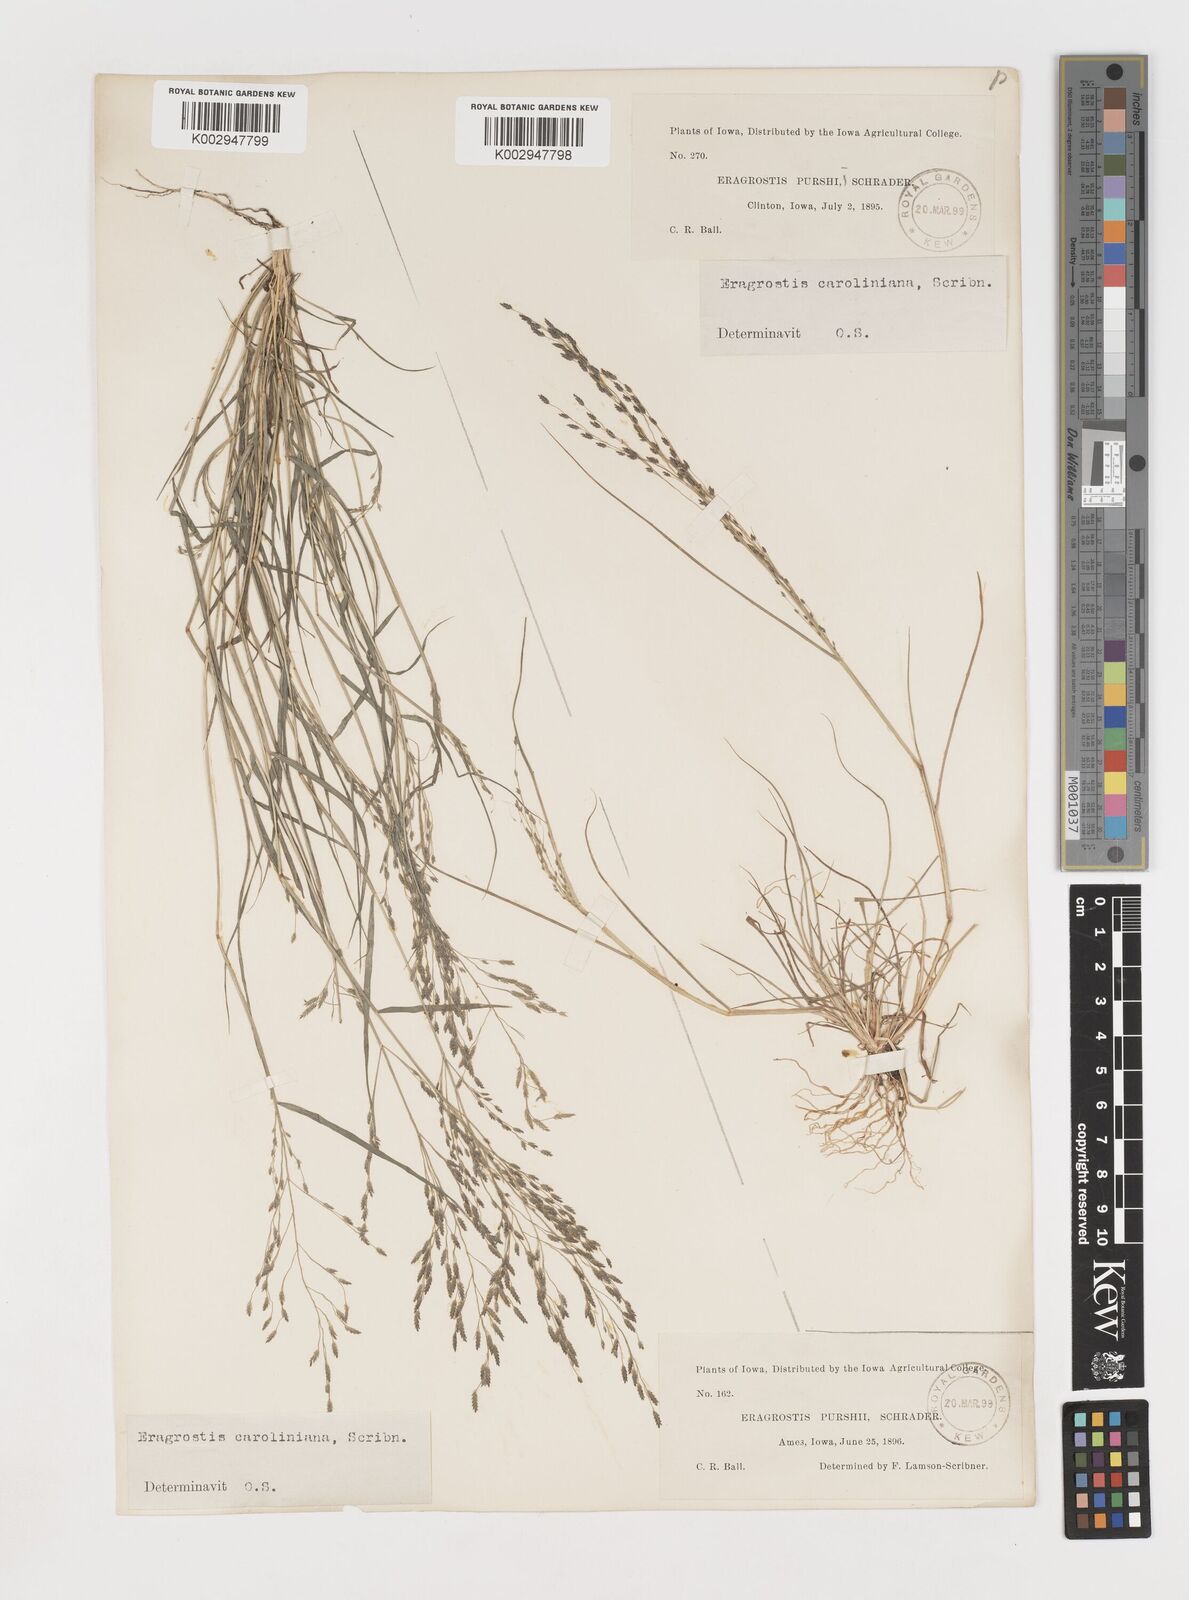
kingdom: Plantae
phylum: Tracheophyta
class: Liliopsida
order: Poales
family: Poaceae
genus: Eragrostis
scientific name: Eragrostis pectinacea
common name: Tufted lovegrass
